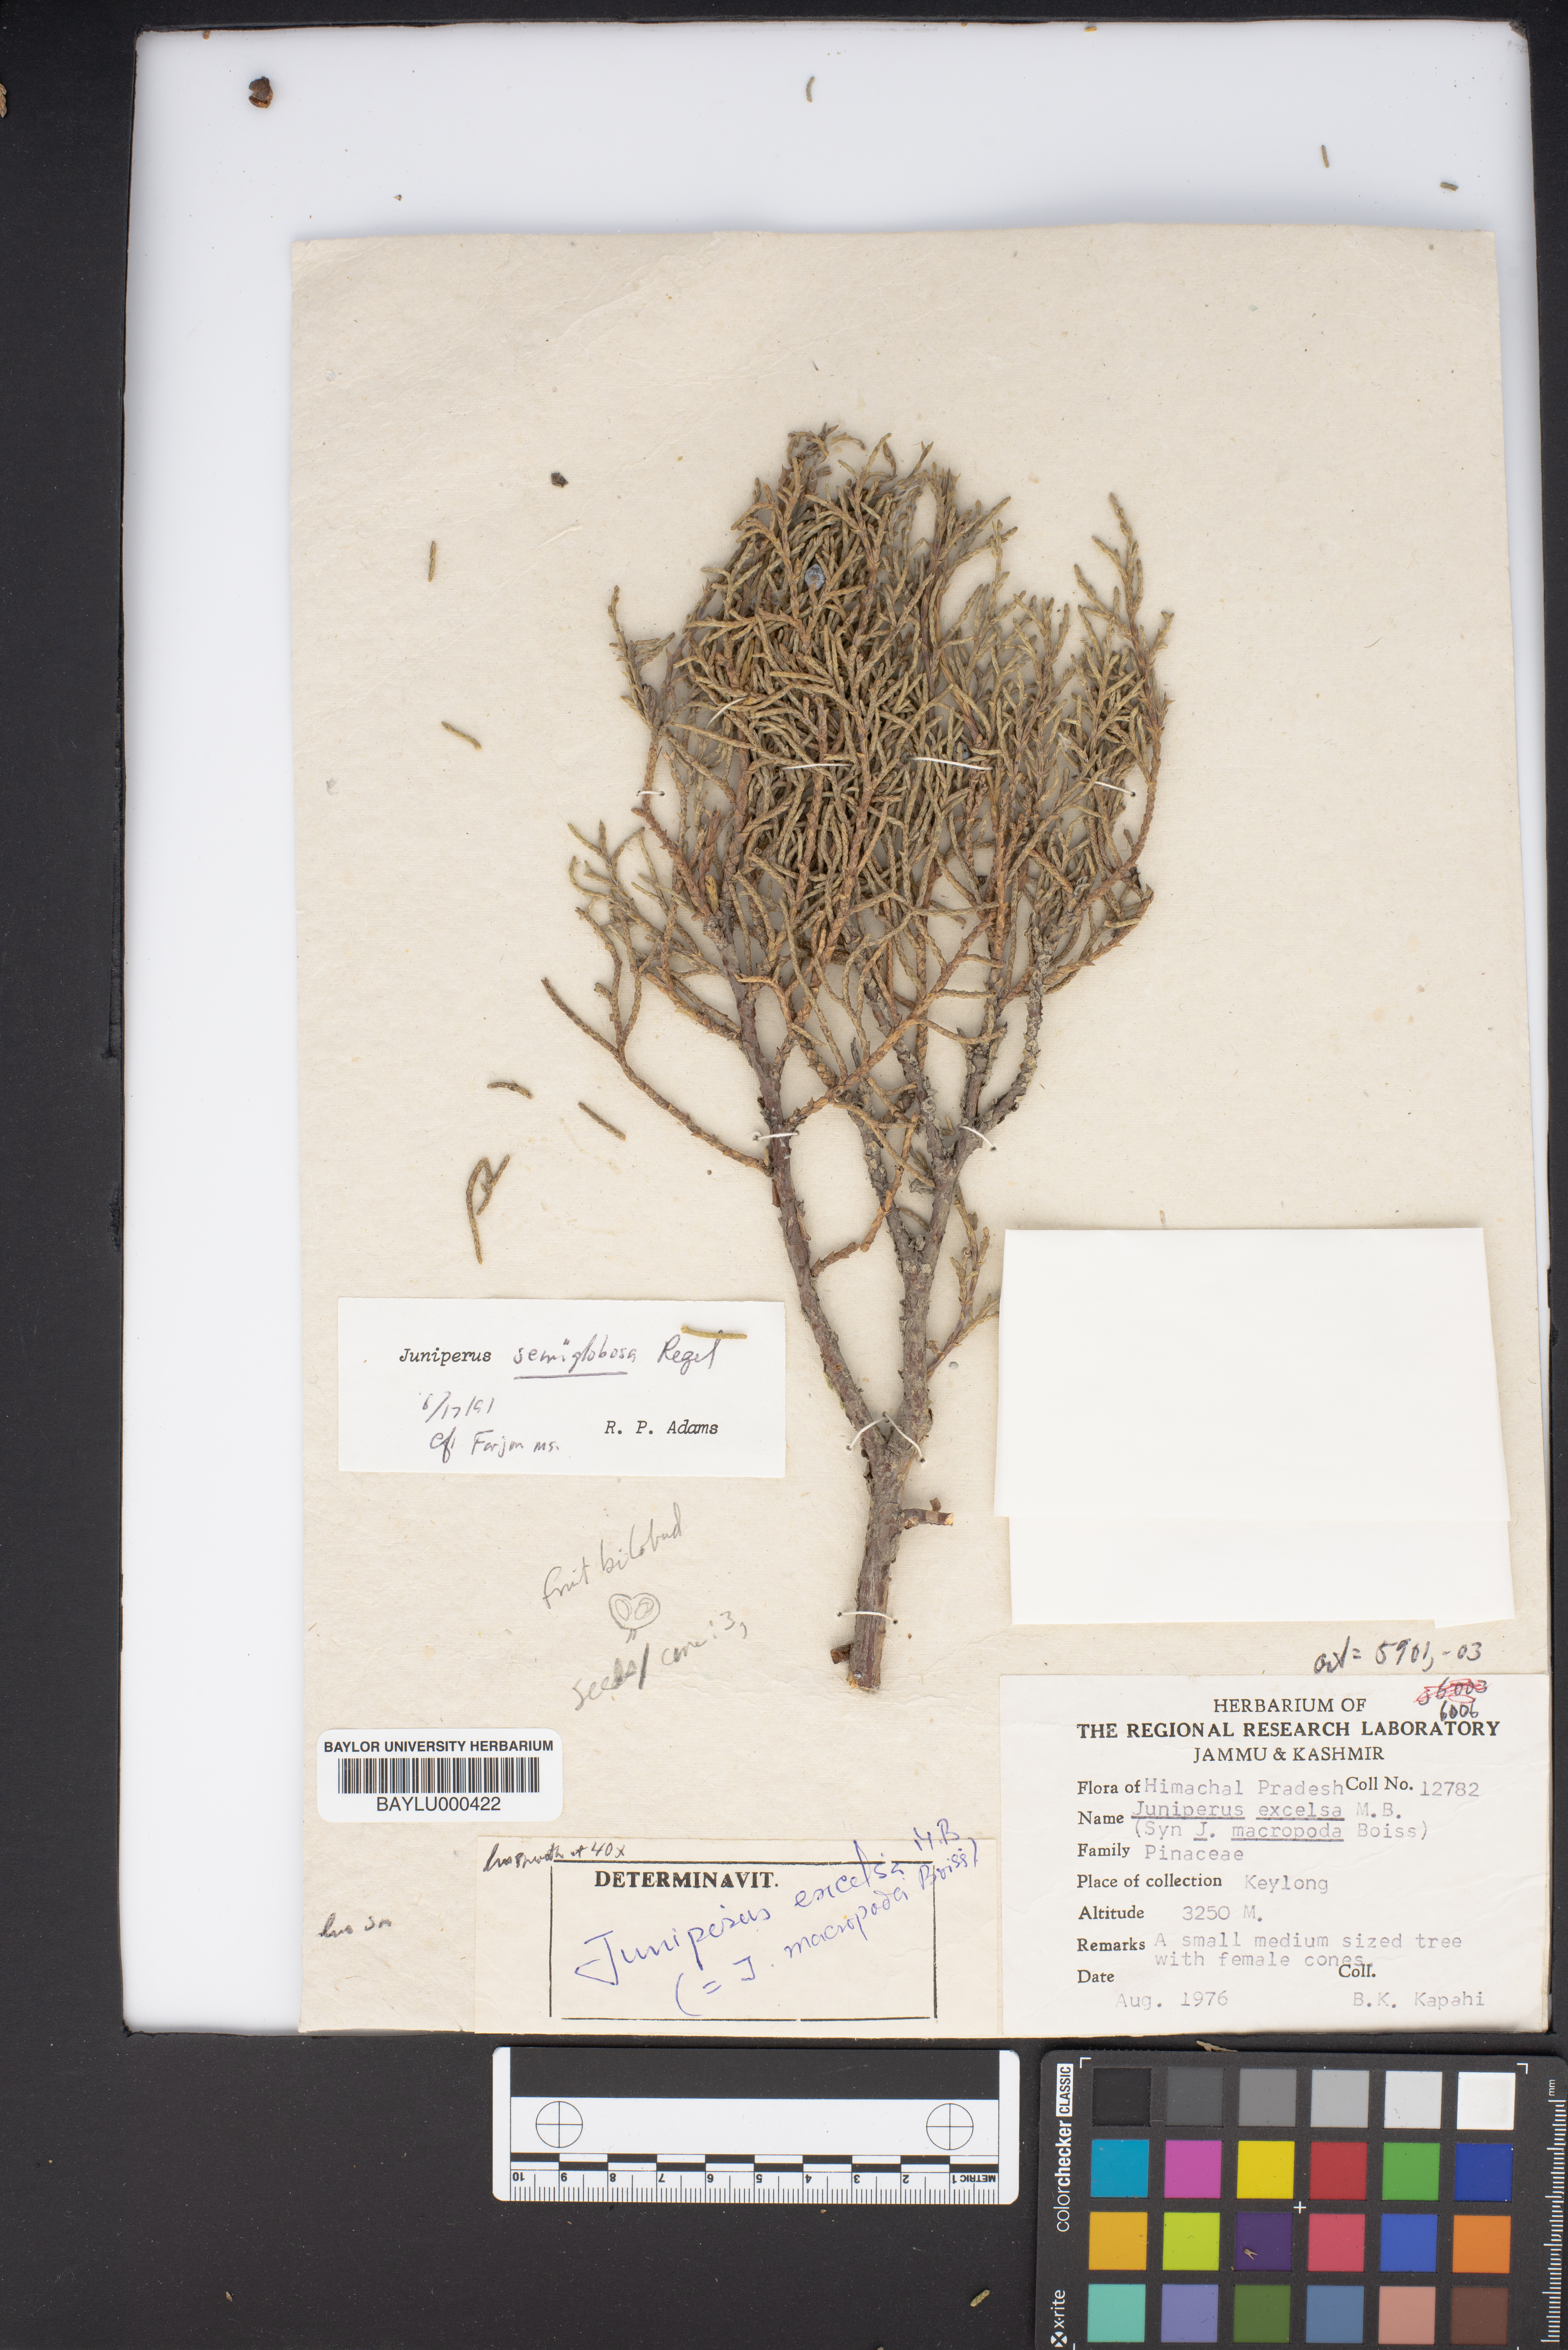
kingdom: Plantae
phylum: Tracheophyta
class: Pinopsida
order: Pinales
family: Cupressaceae
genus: Juniperus
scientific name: Juniperus excelsa
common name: Crimean juniper
